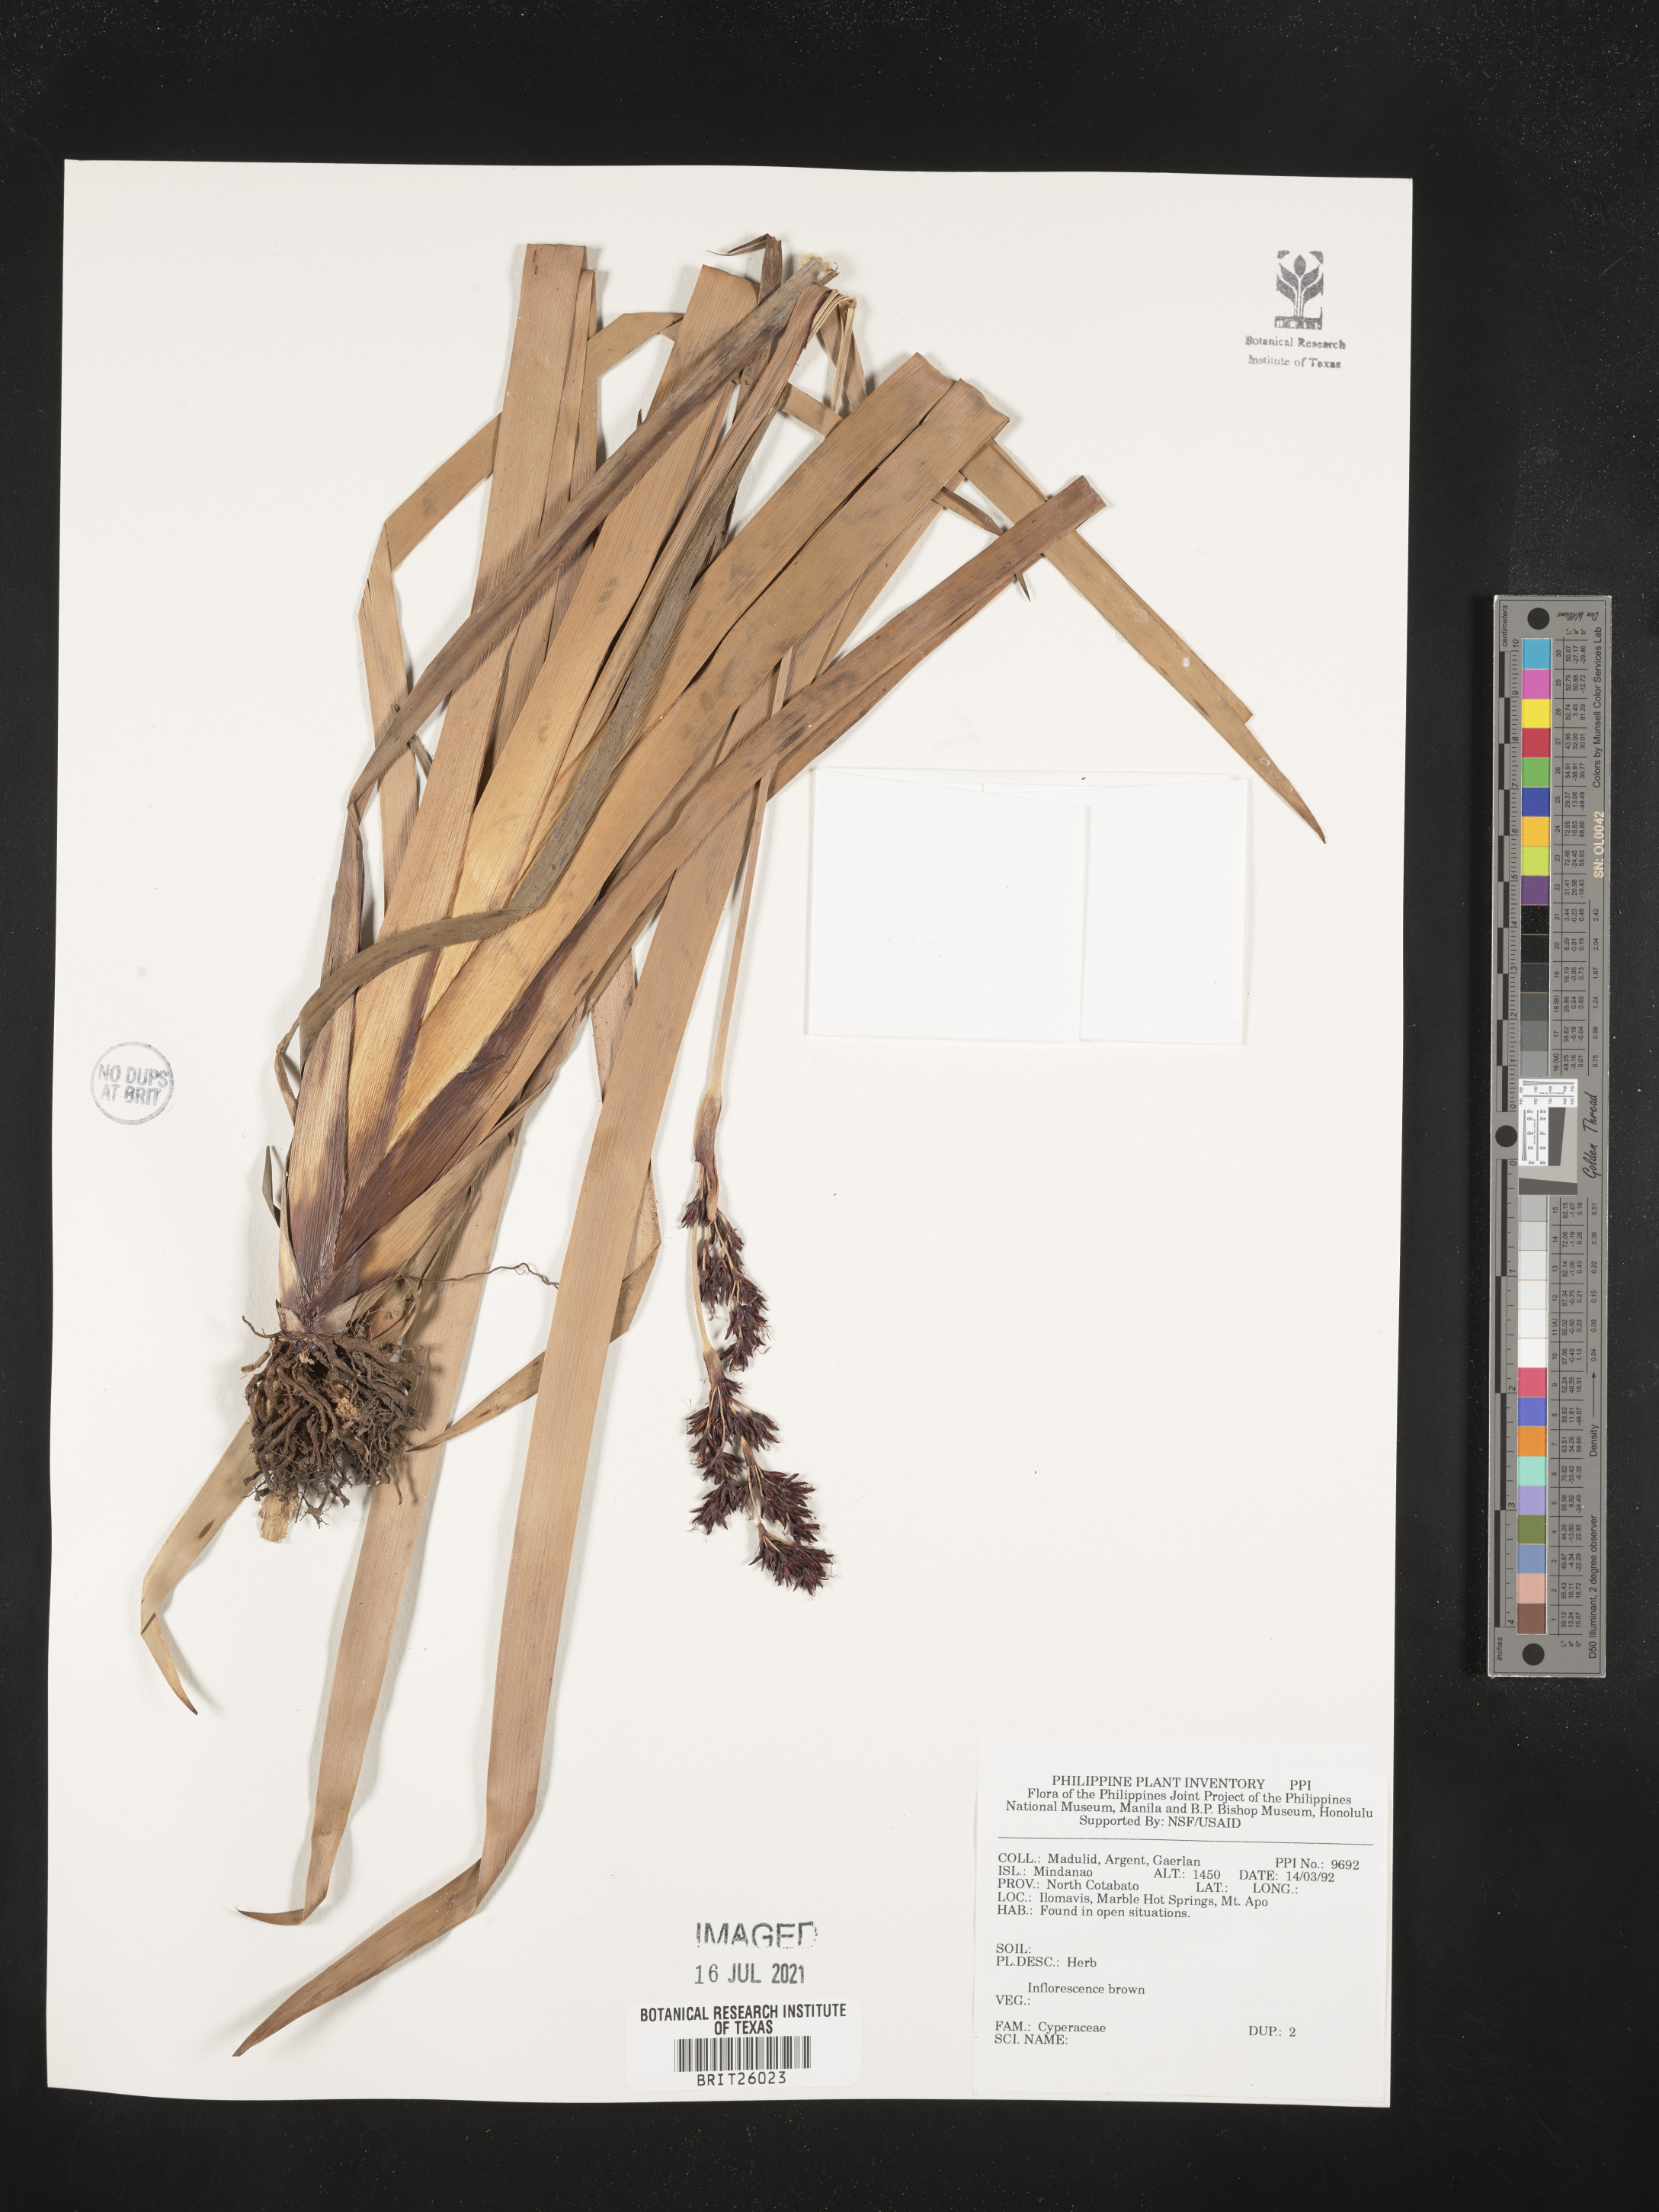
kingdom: Plantae
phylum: Tracheophyta
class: Liliopsida
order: Poales
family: Cyperaceae
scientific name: Cyperaceae
